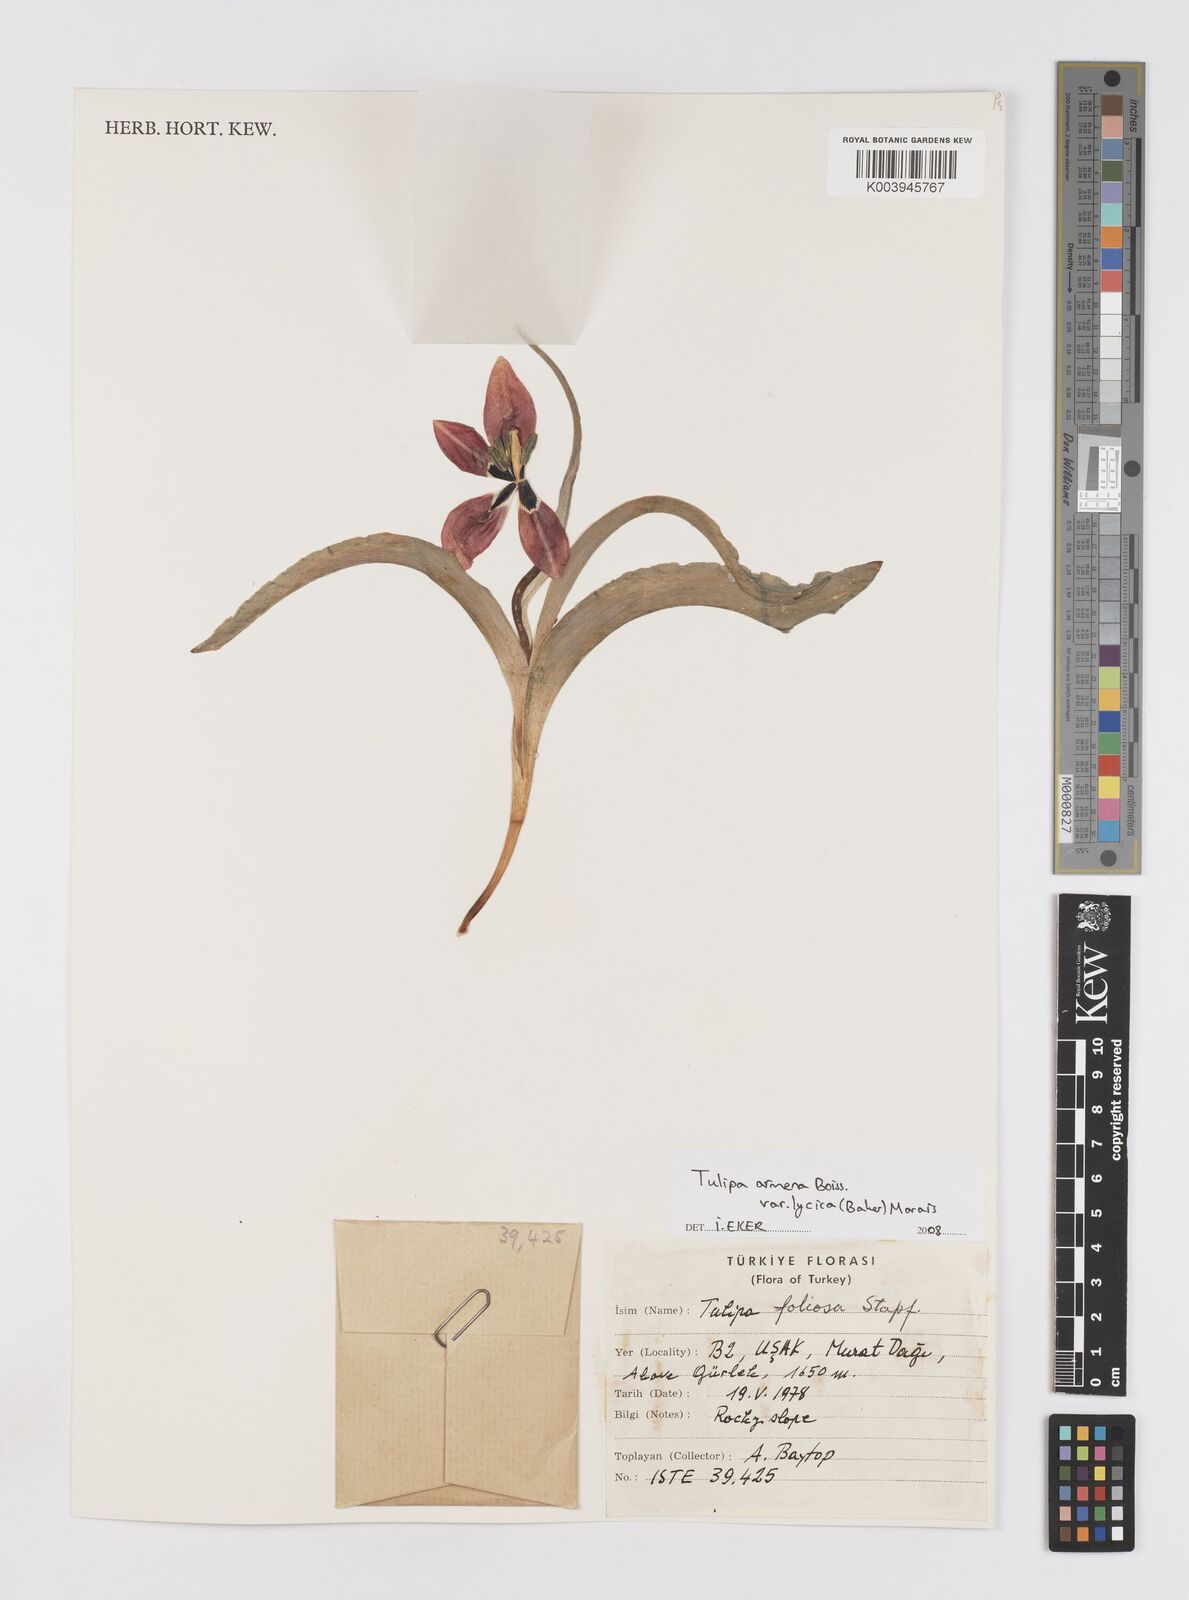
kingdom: Plantae
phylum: Tracheophyta
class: Liliopsida
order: Liliales
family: Liliaceae
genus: Tulipa
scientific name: Tulipa foliosa
